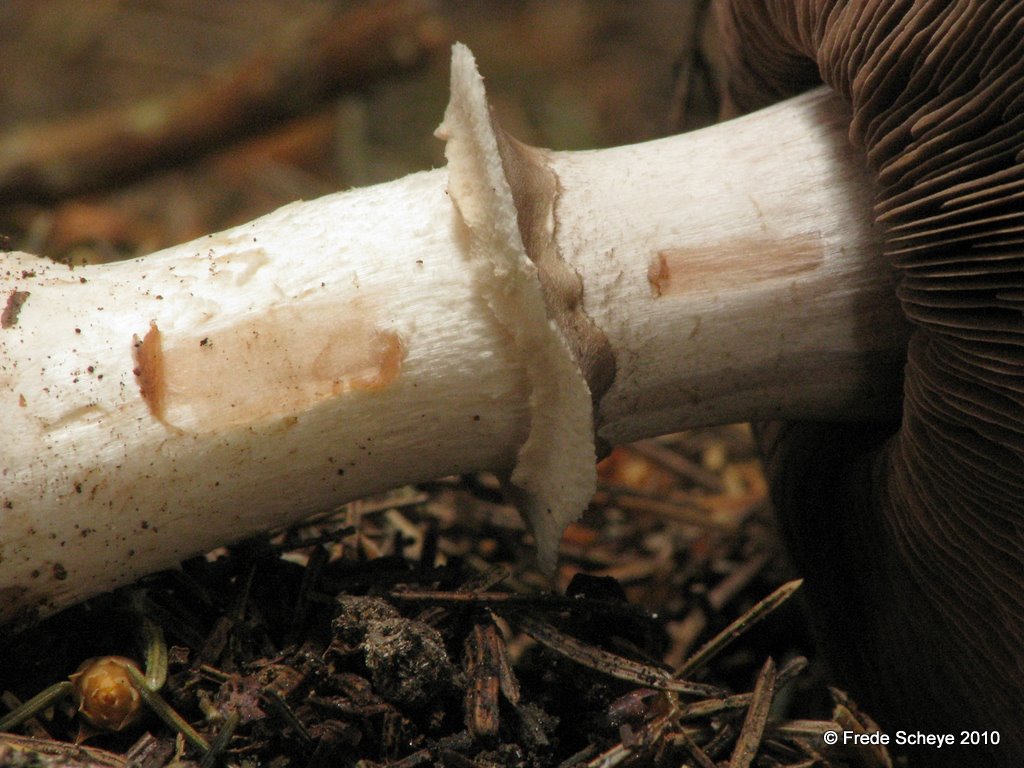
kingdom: Fungi
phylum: Basidiomycota
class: Agaricomycetes
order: Agaricales
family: Agaricaceae
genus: Agaricus
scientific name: Agaricus subfloccosus
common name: randskællet champignon
